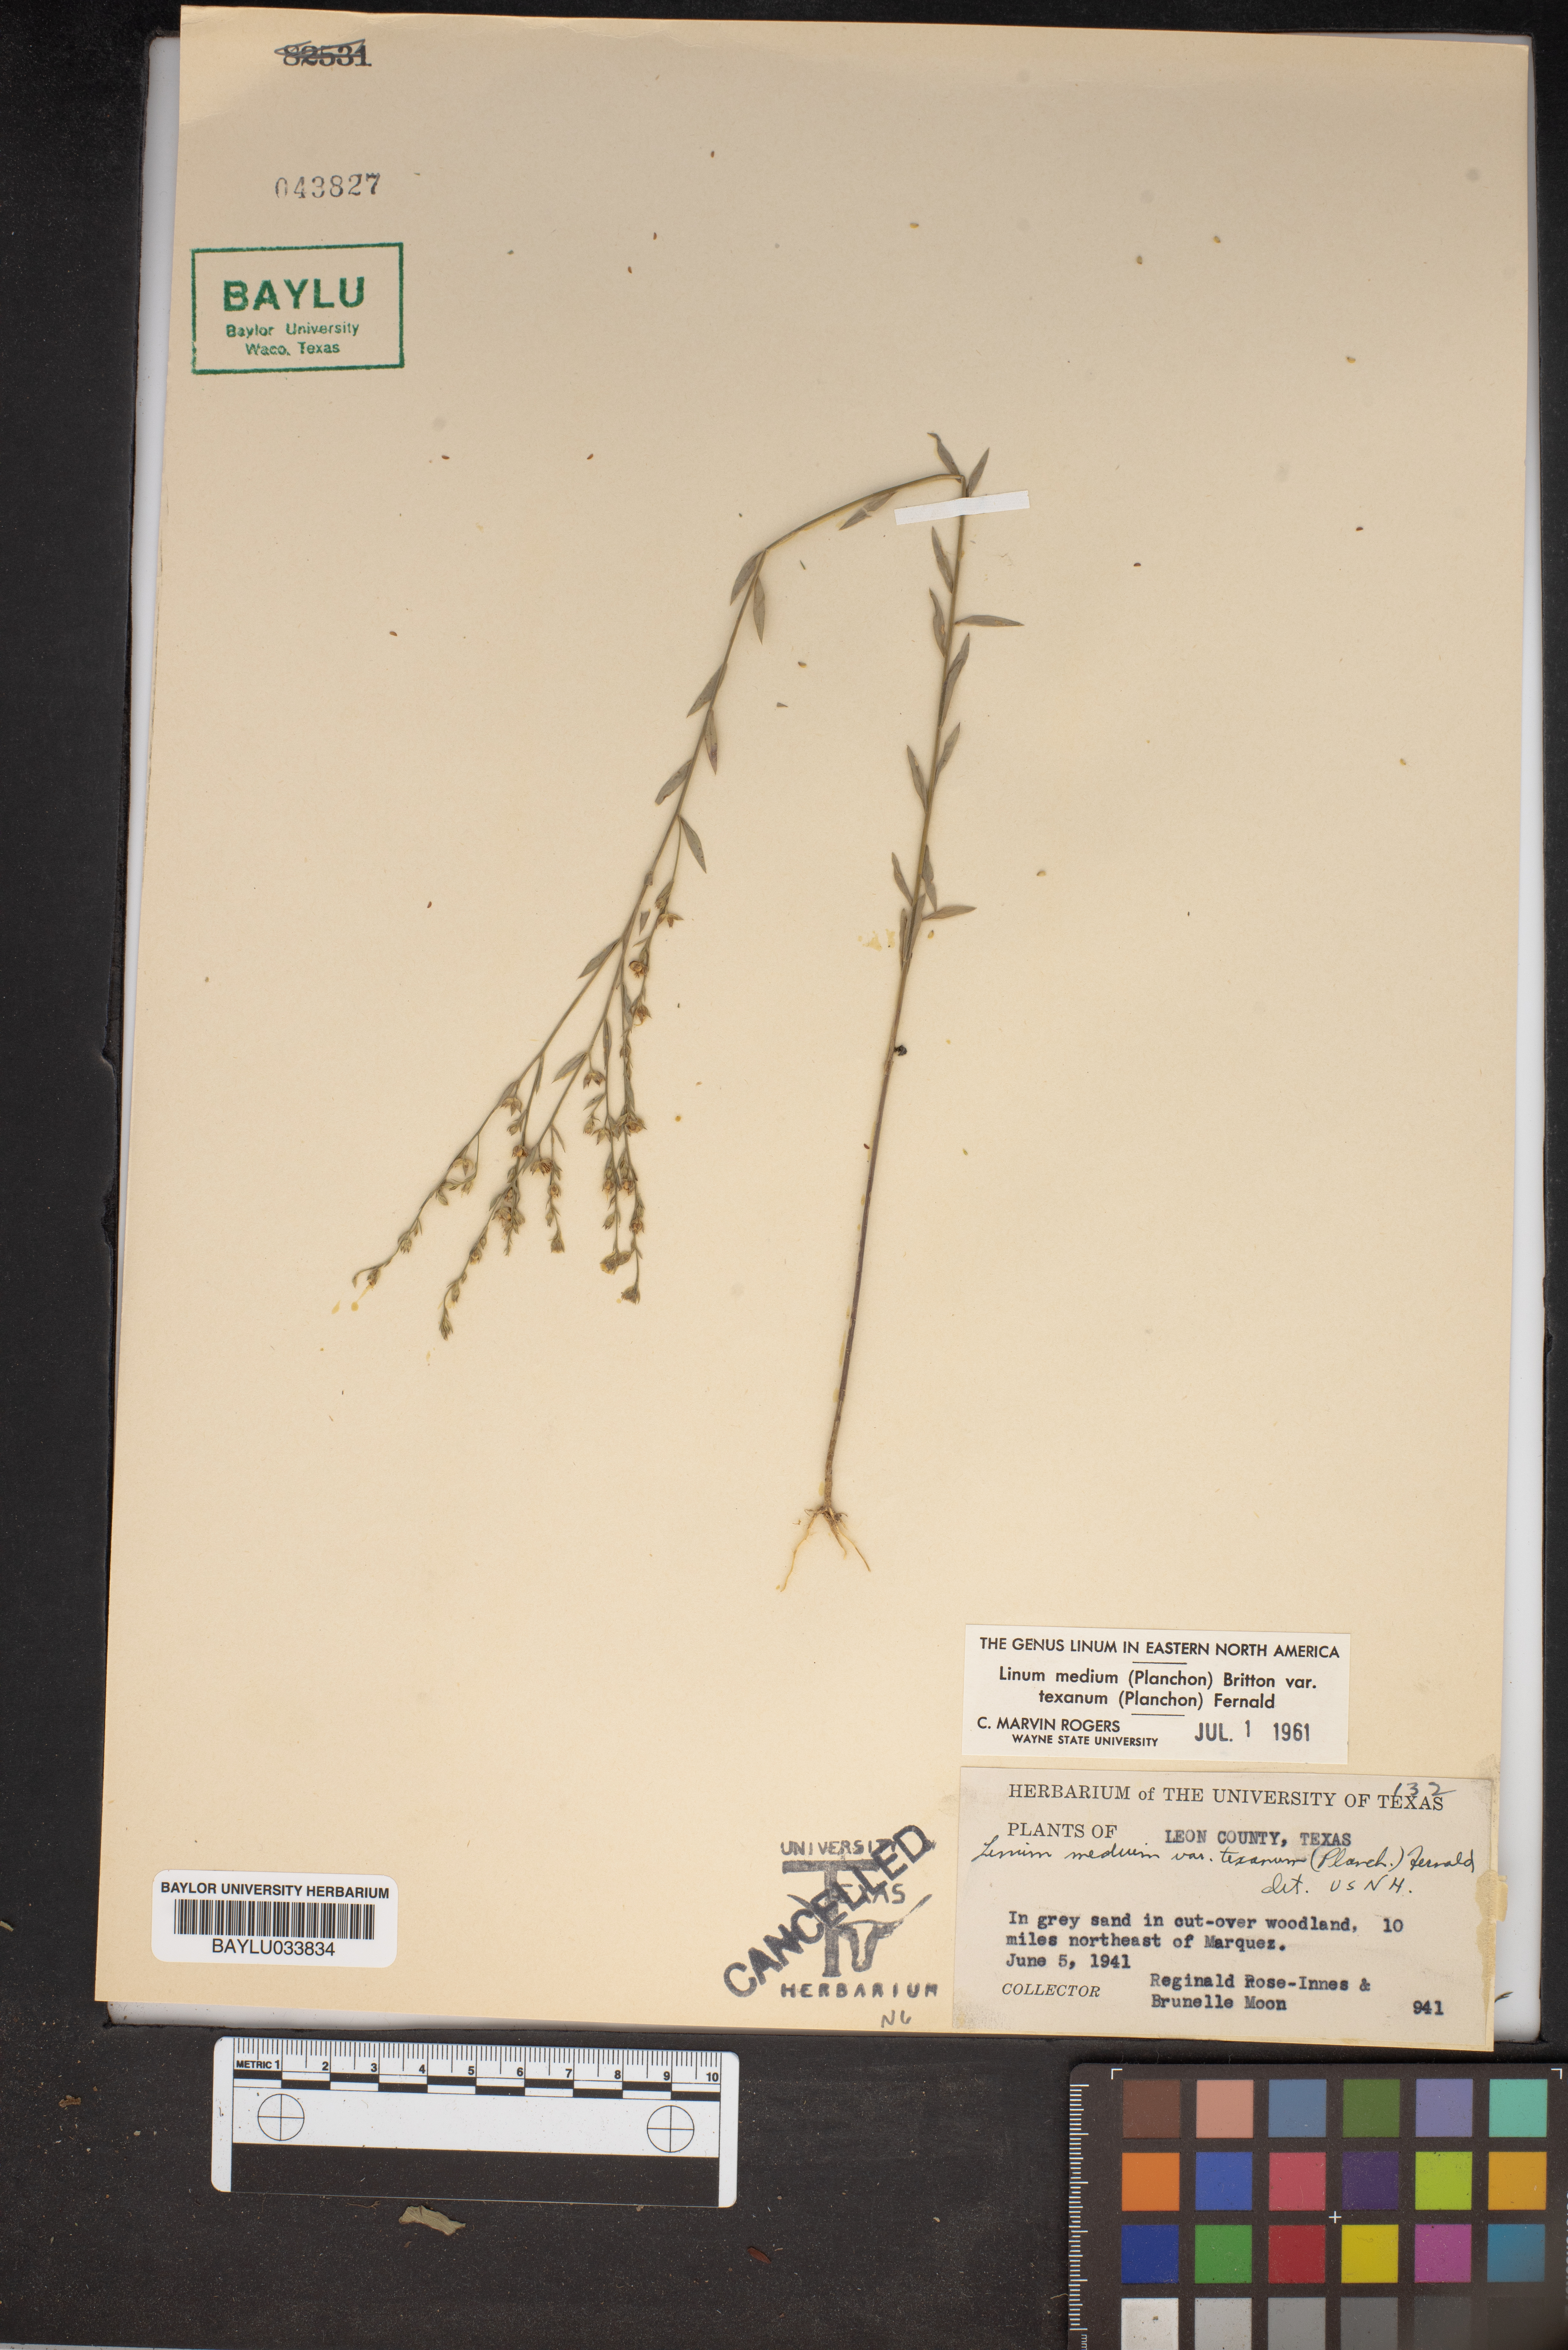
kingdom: Plantae
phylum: Tracheophyta
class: Magnoliopsida
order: Malpighiales
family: Linaceae
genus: Linum
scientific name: Linum medium
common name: Stiff yellow flax
